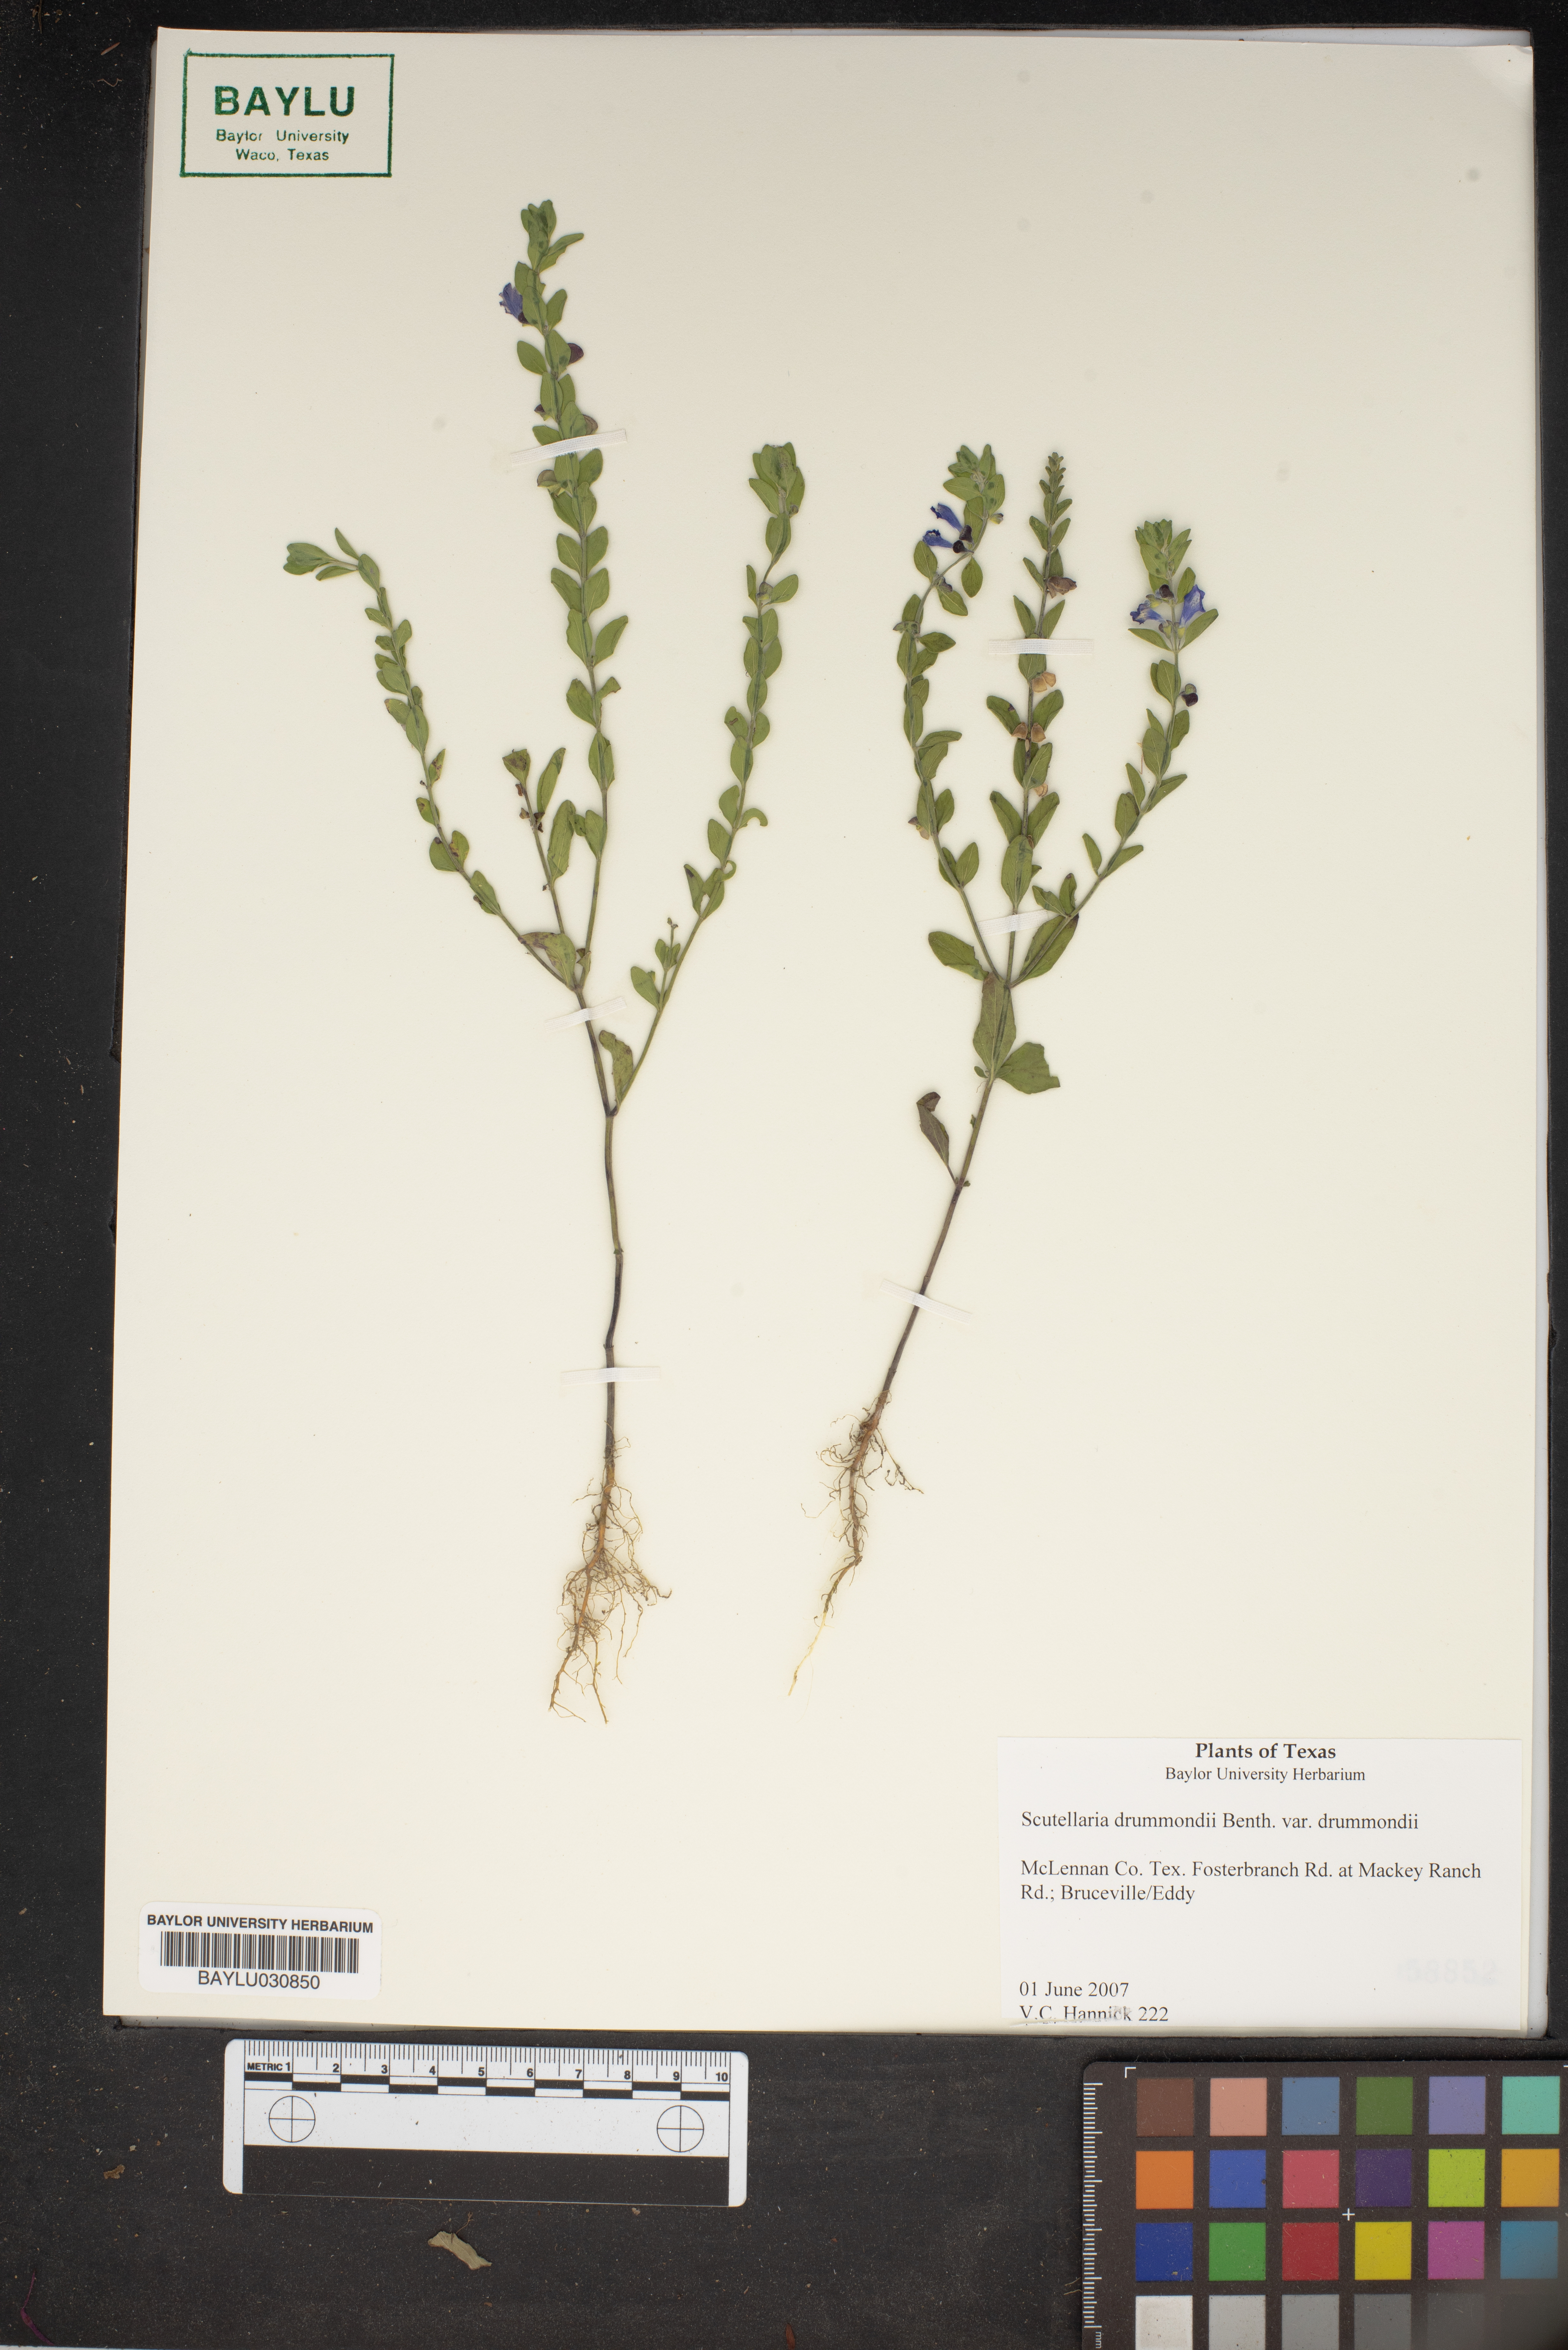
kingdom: Plantae
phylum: Tracheophyta
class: Magnoliopsida
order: Lamiales
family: Lamiaceae
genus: Scutellaria
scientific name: Scutellaria drummondii
